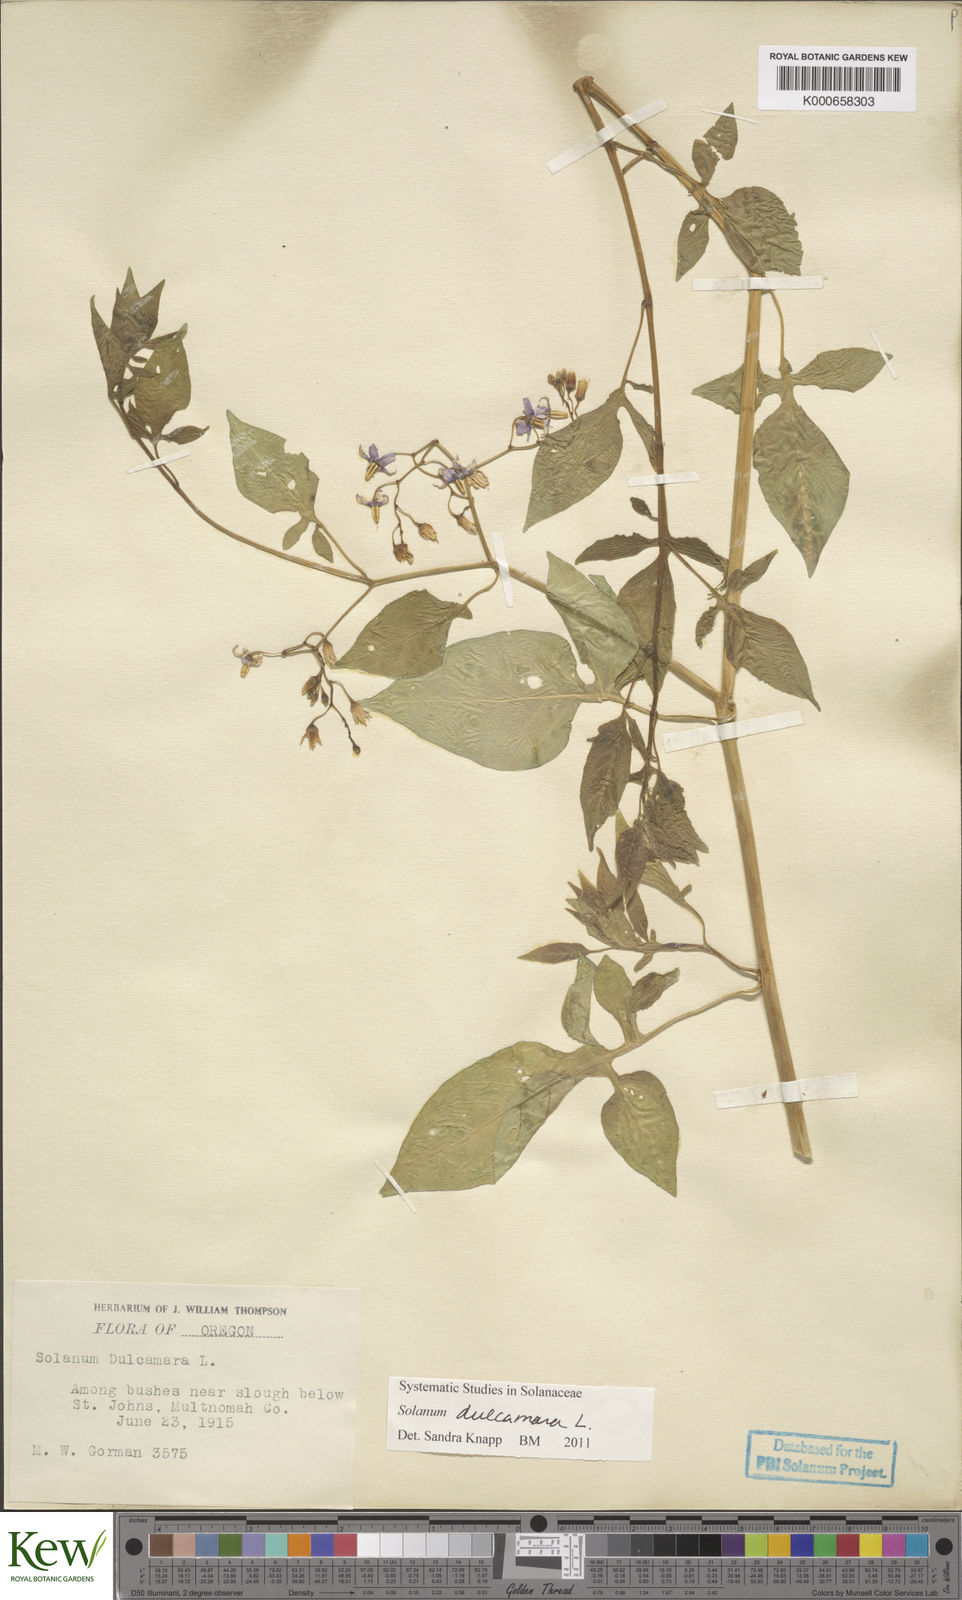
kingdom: Plantae
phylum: Tracheophyta
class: Magnoliopsida
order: Solanales
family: Solanaceae
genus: Solanum
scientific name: Solanum dulcamara
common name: Climbing nightshade
